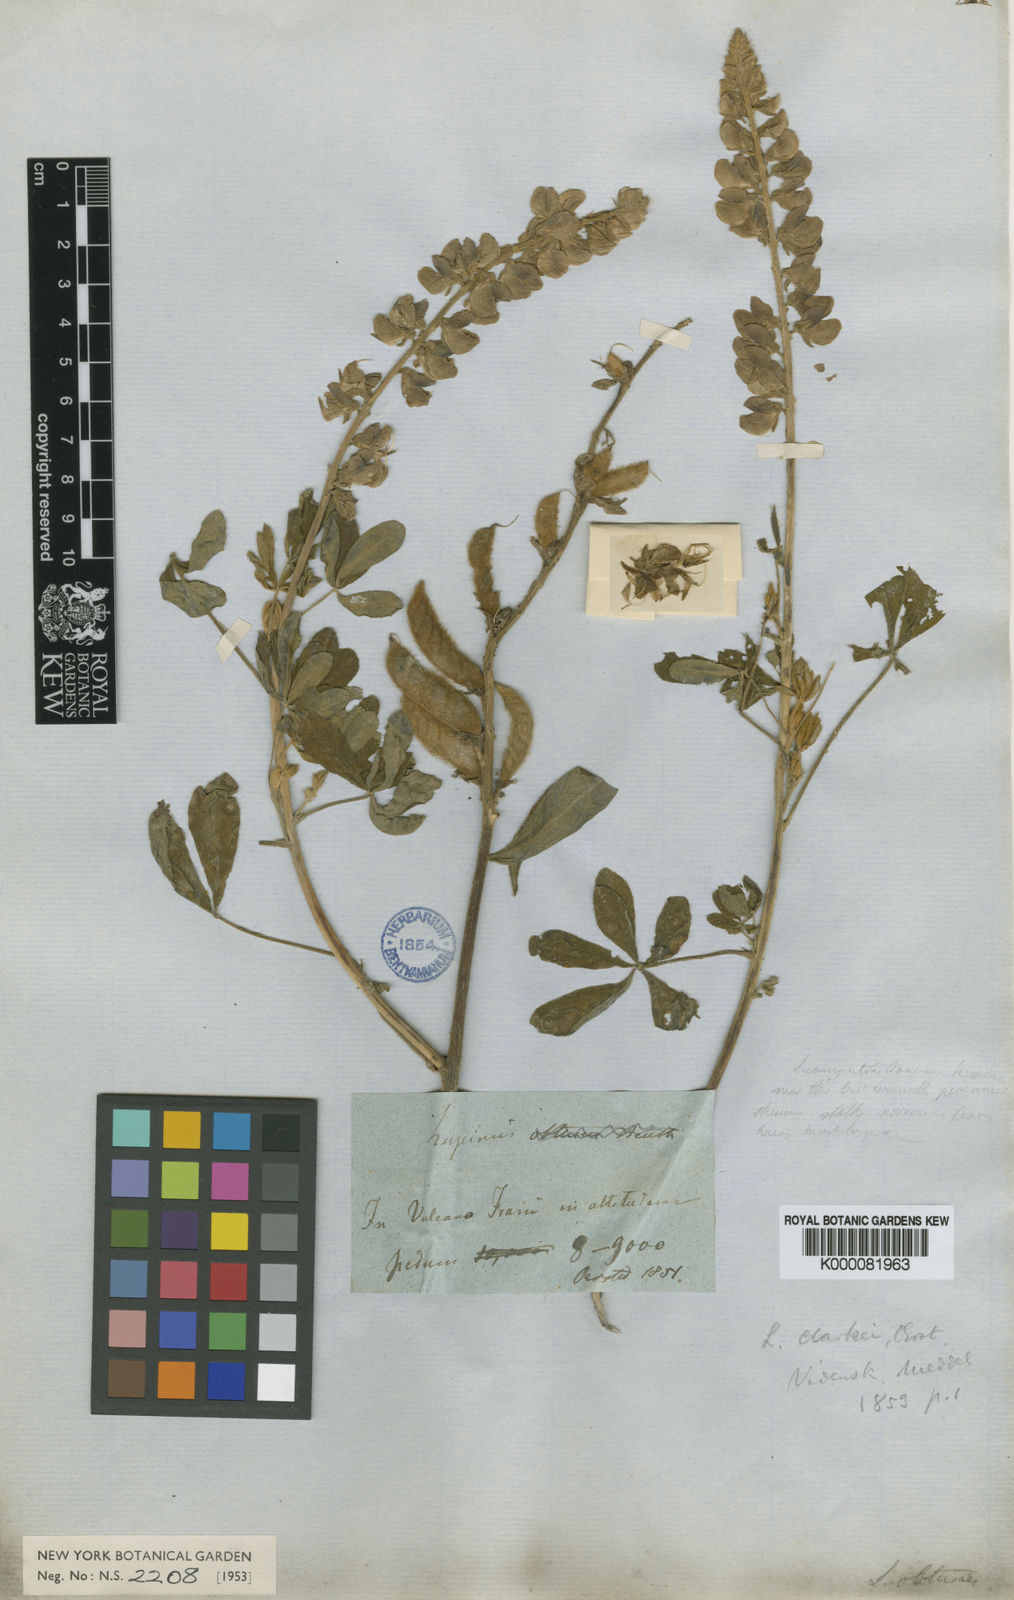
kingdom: Plantae
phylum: Tracheophyta
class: Magnoliopsida
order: Fabales
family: Fabaceae
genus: Lupinus
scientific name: Lupinus
